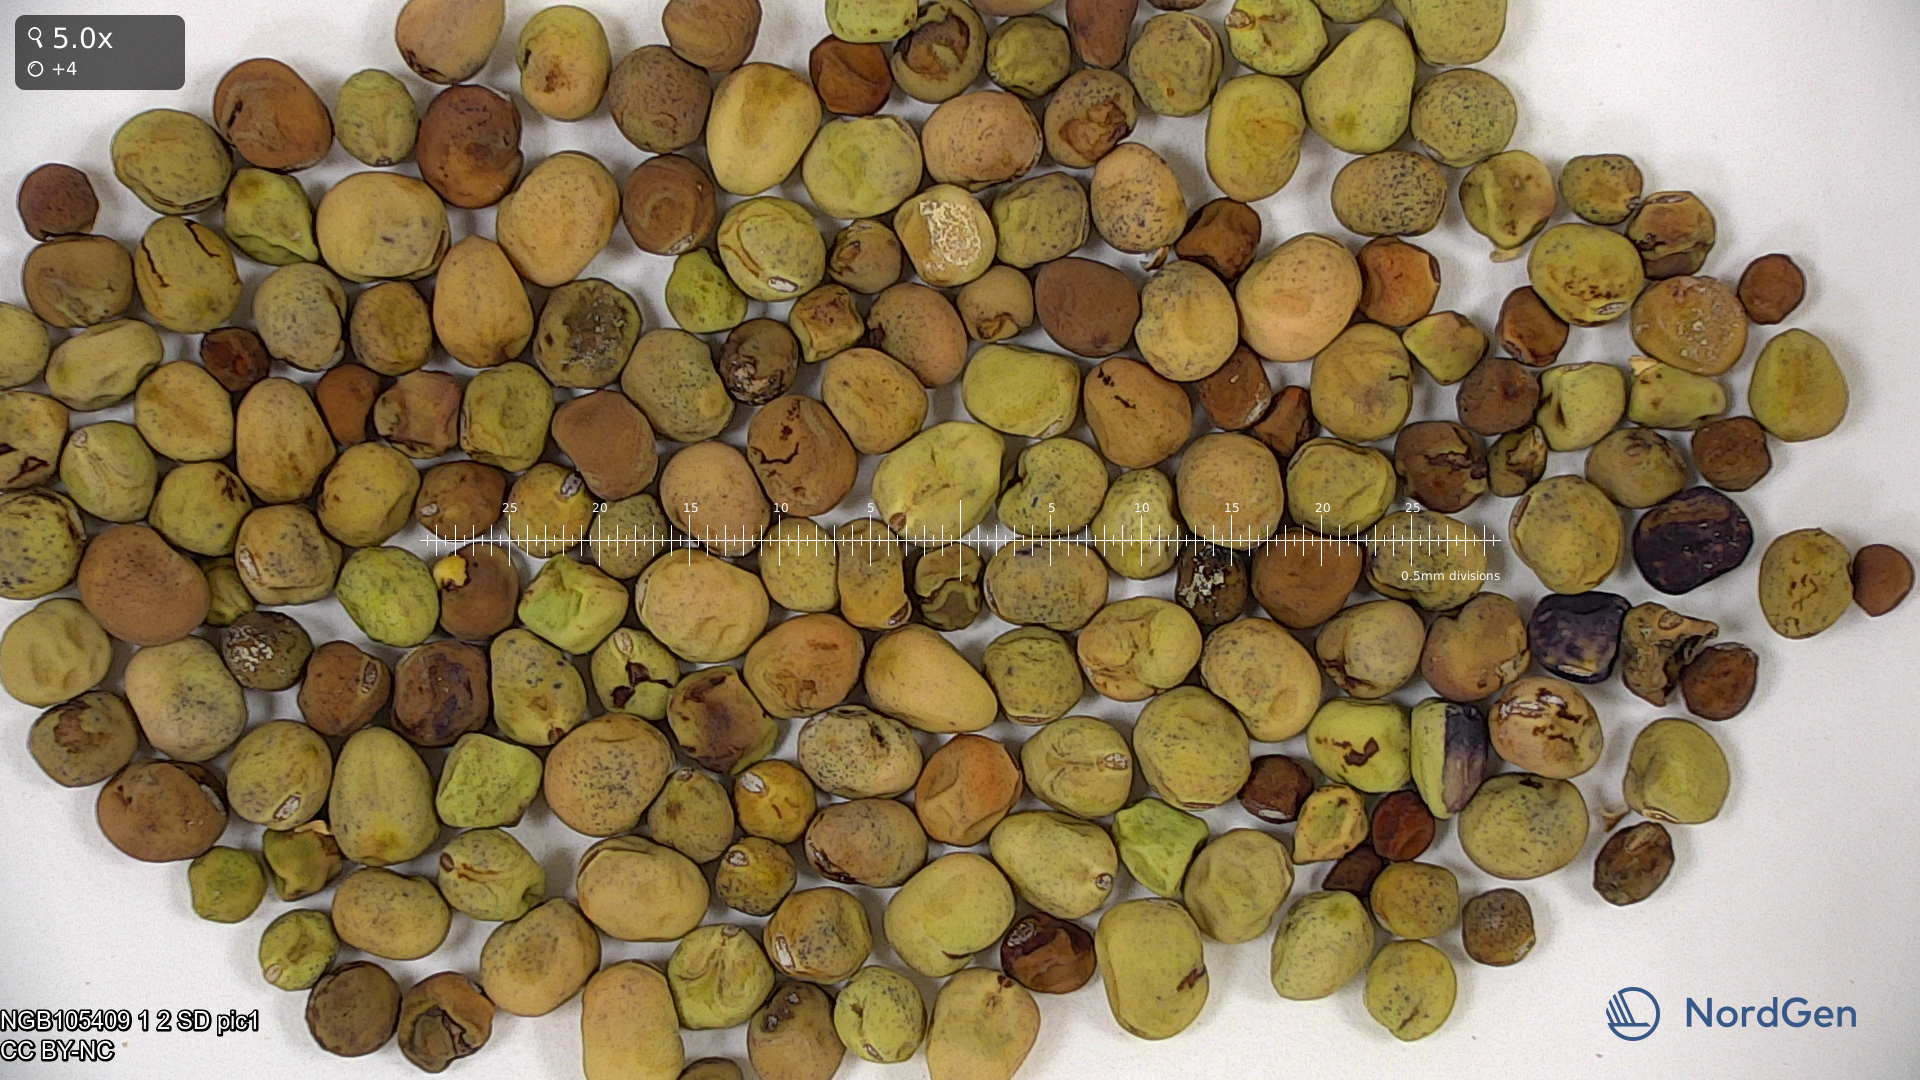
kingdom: Plantae
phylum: Tracheophyta
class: Magnoliopsida
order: Fabales
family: Fabaceae
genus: Lathyrus
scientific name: Lathyrus oleraceus
